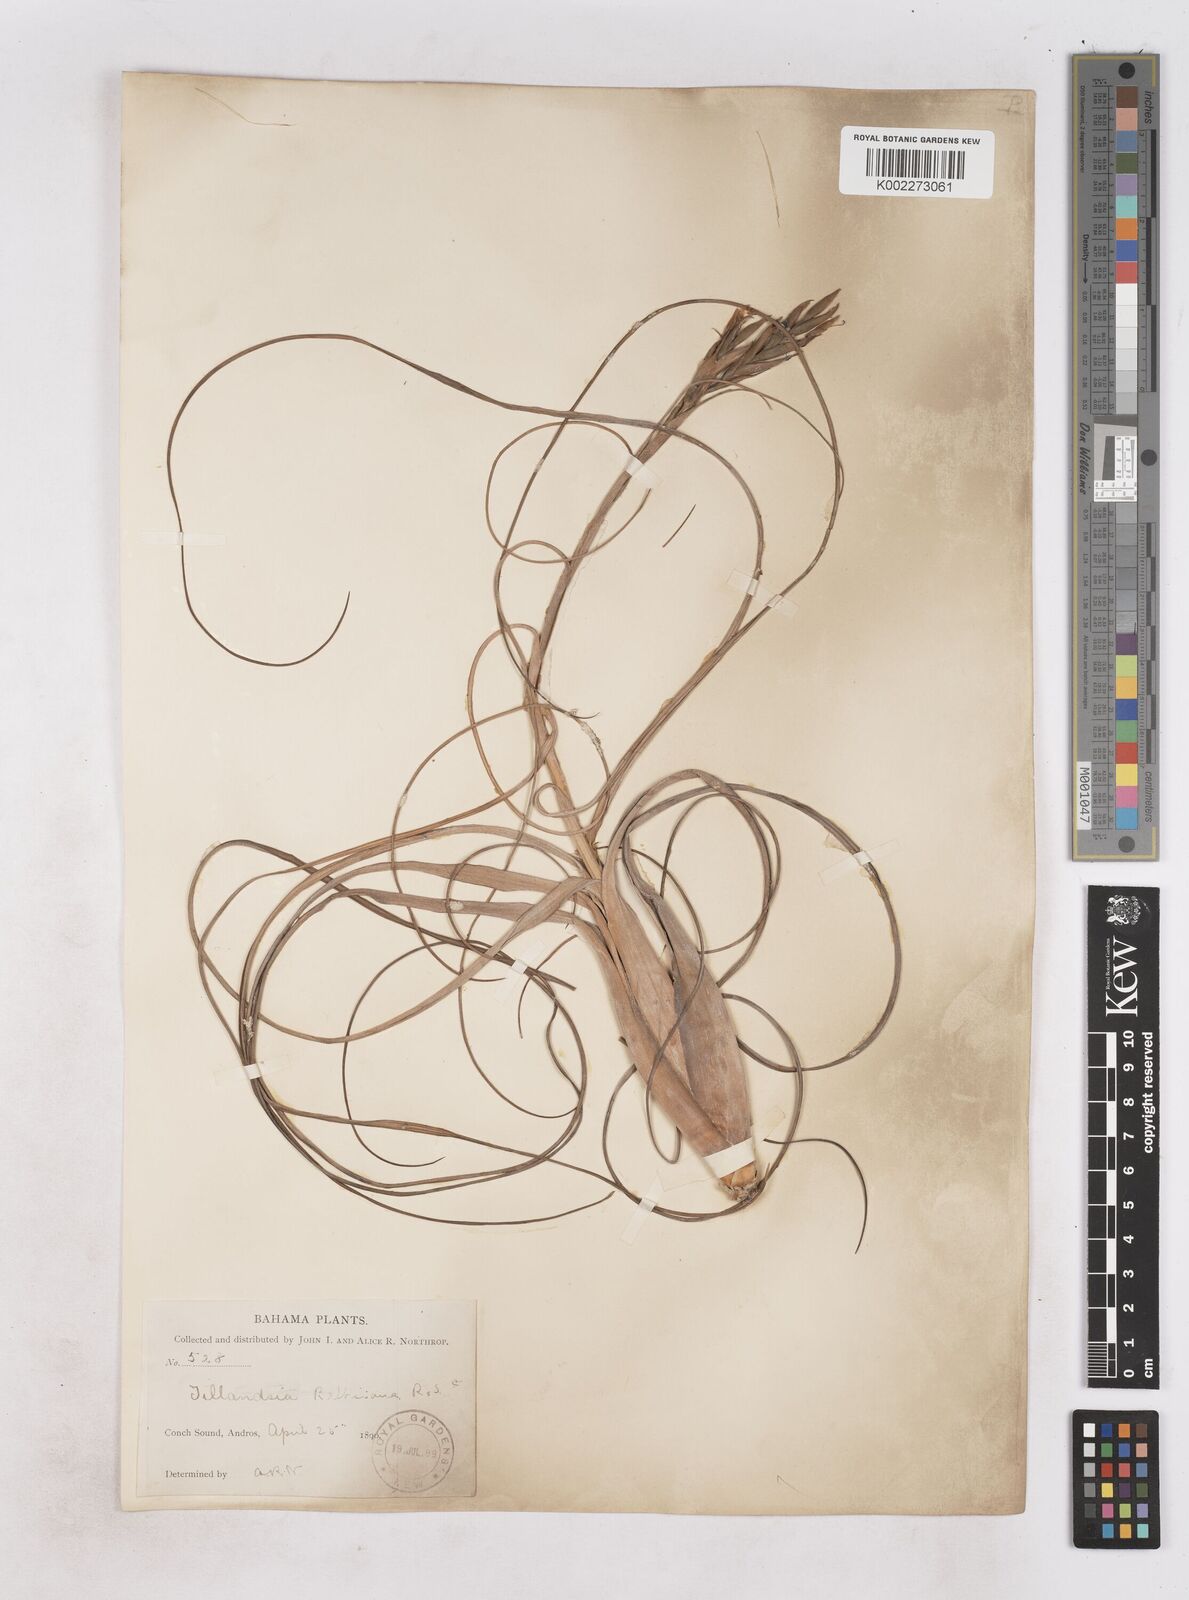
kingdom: Plantae
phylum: Tracheophyta
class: Liliopsida
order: Poales
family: Bromeliaceae
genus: Tillandsia
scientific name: Tillandsia balbisiana
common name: Northern needleleaf
